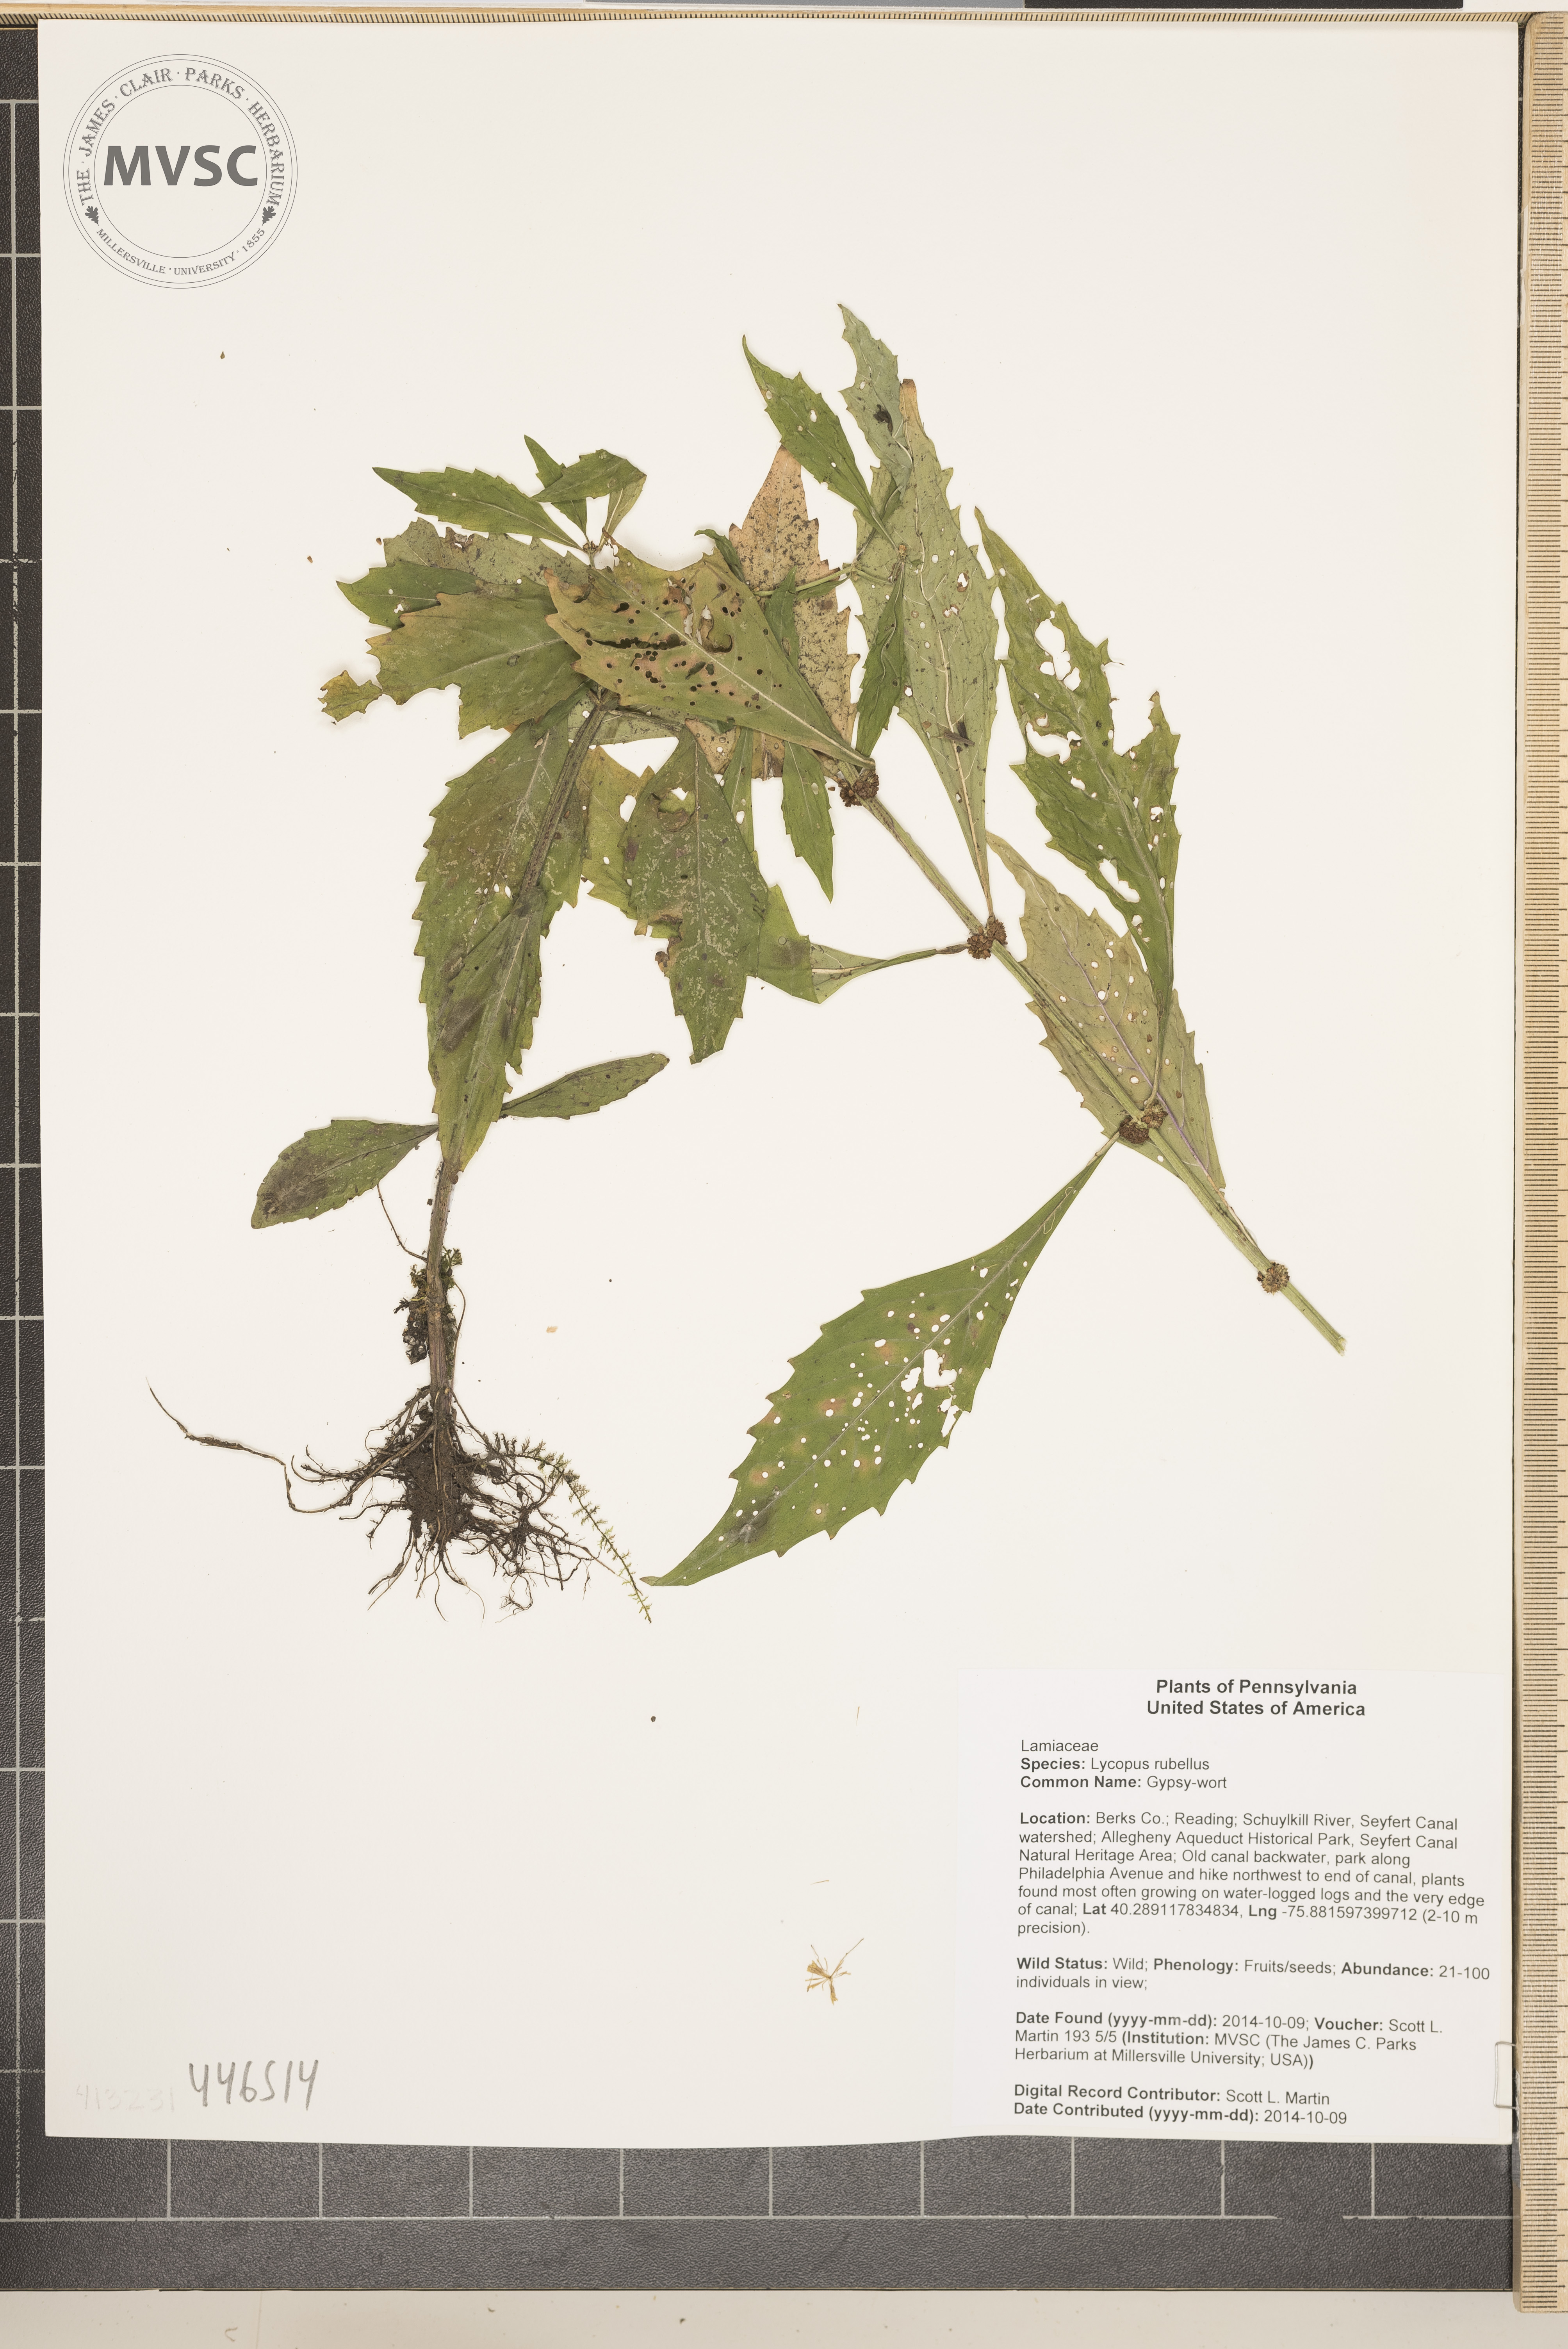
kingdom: Plantae
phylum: Tracheophyta
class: Magnoliopsida
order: Lamiales
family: Lamiaceae
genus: Lycopus
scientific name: Lycopus rubellus
